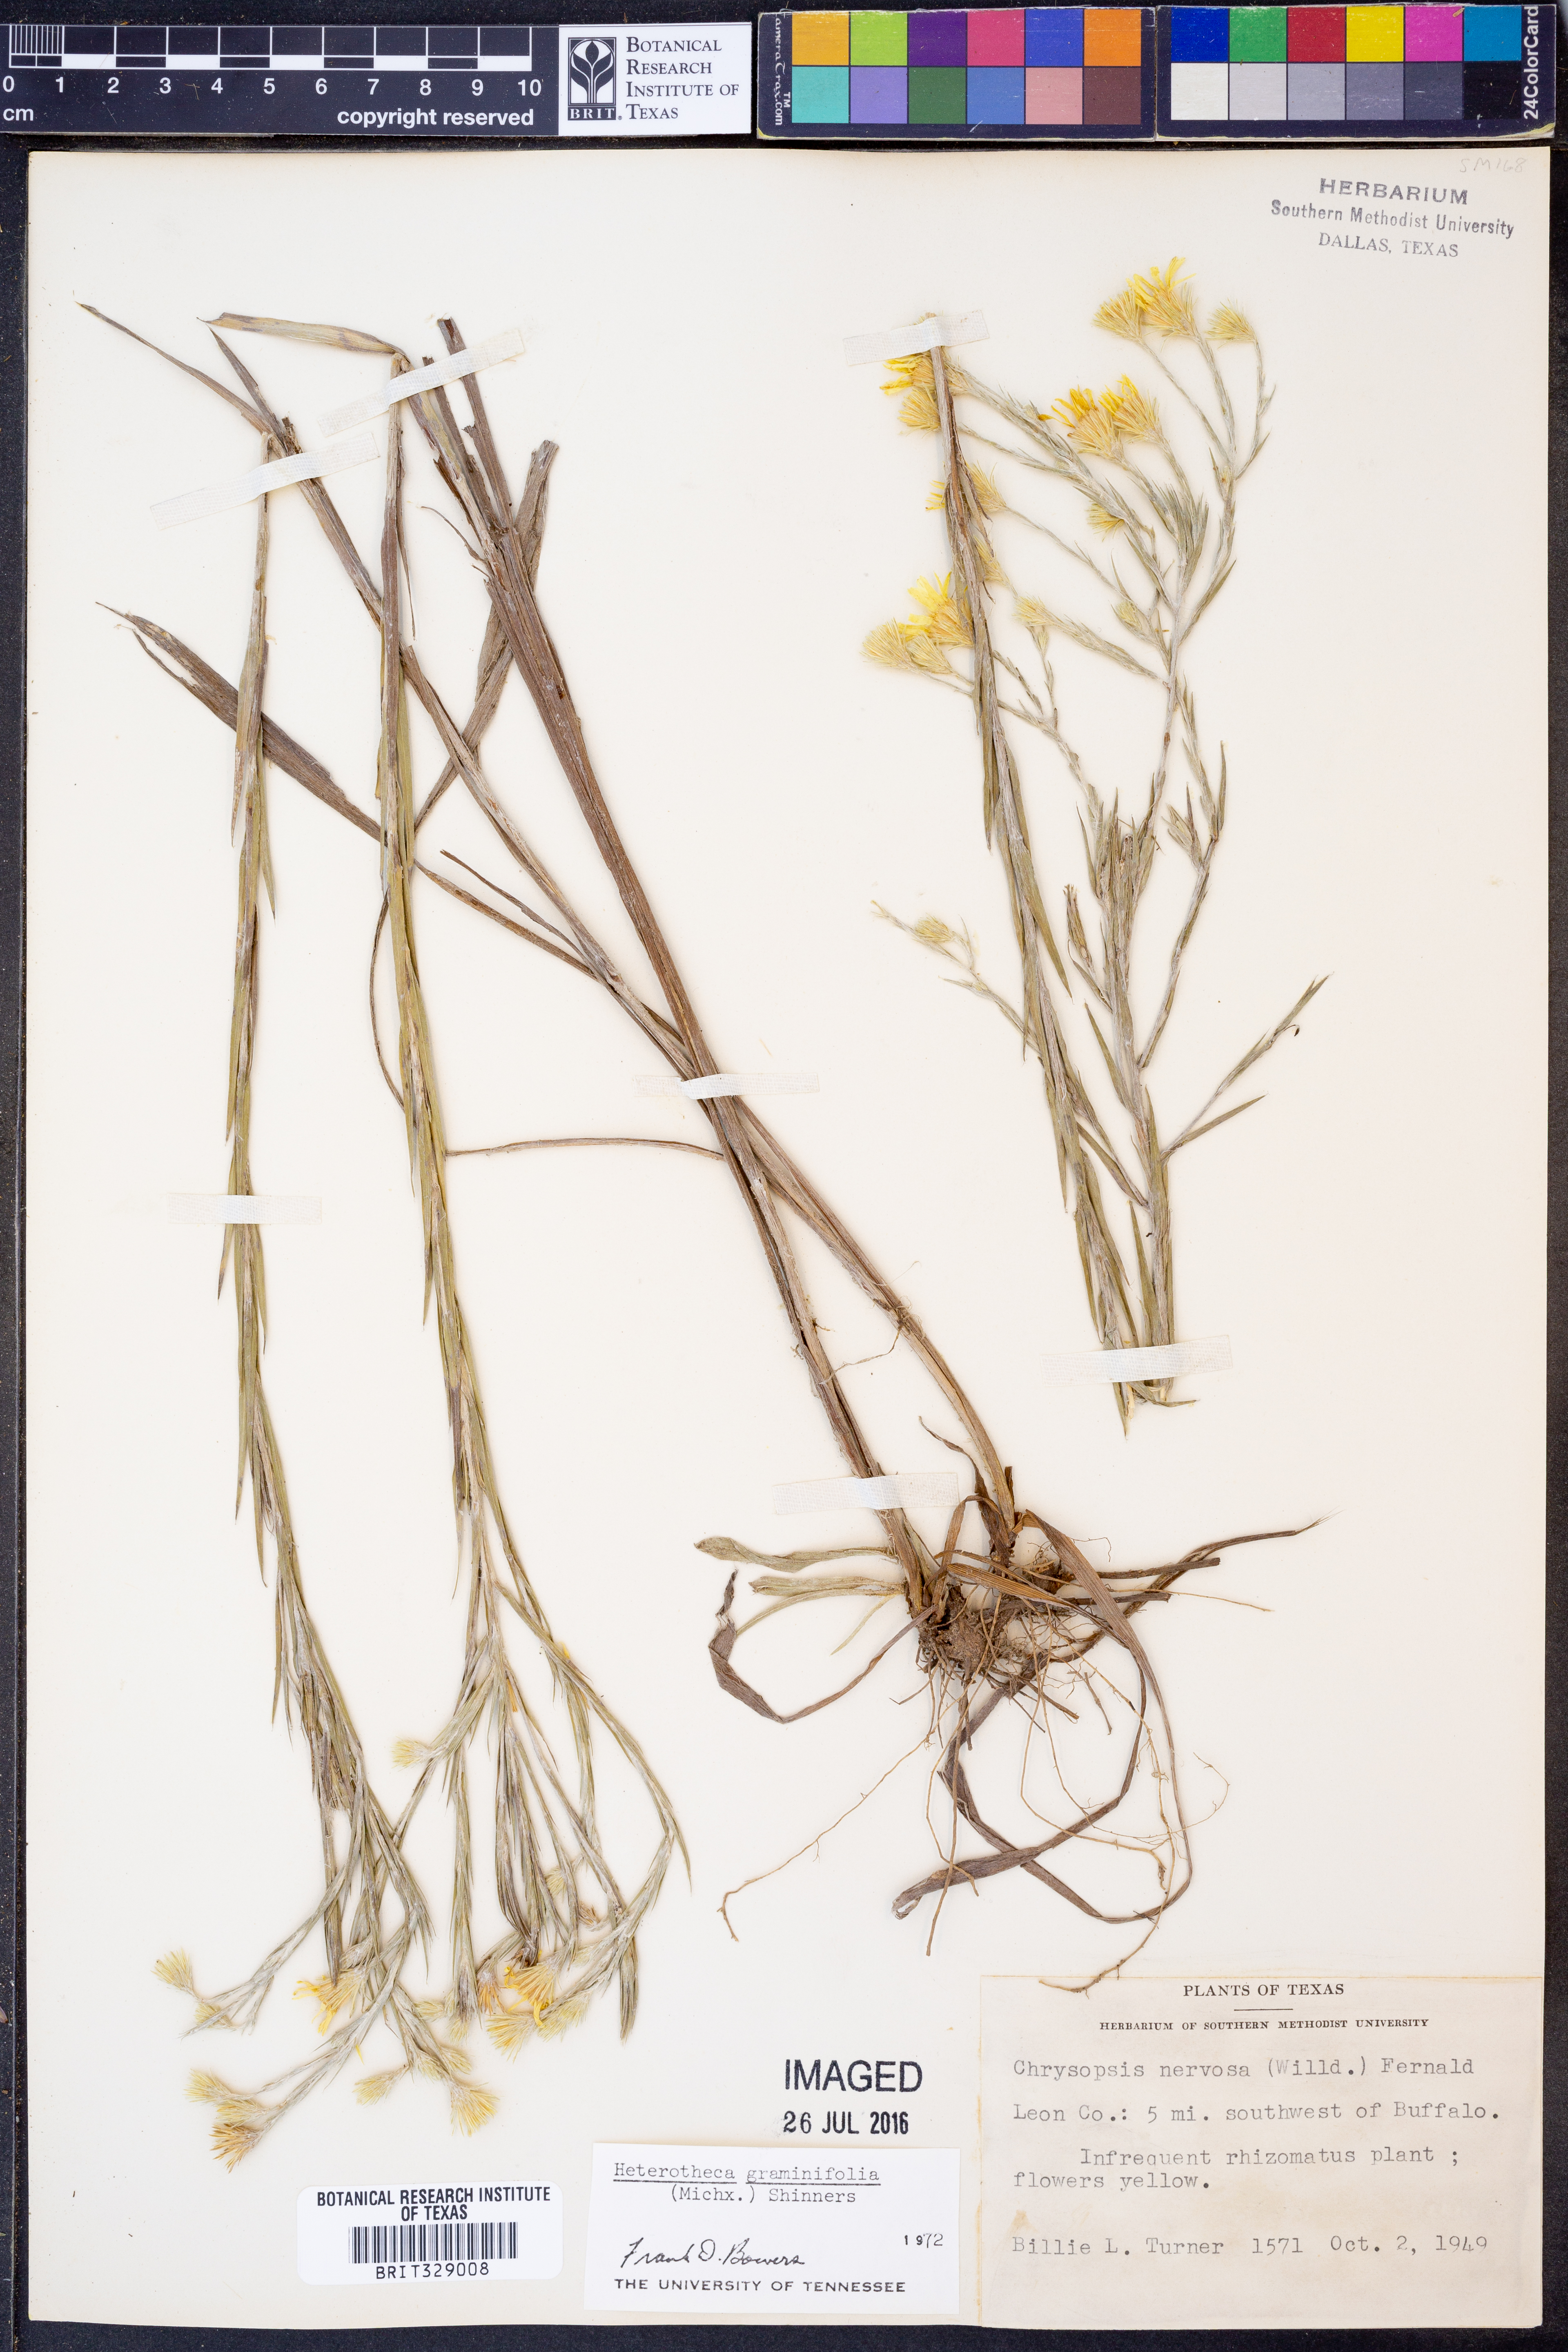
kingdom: Plantae
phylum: Tracheophyta
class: Magnoliopsida
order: Asterales
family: Asteraceae
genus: Pityopsis
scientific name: Pityopsis graminifolia
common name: Grass-leaf golden-aster
